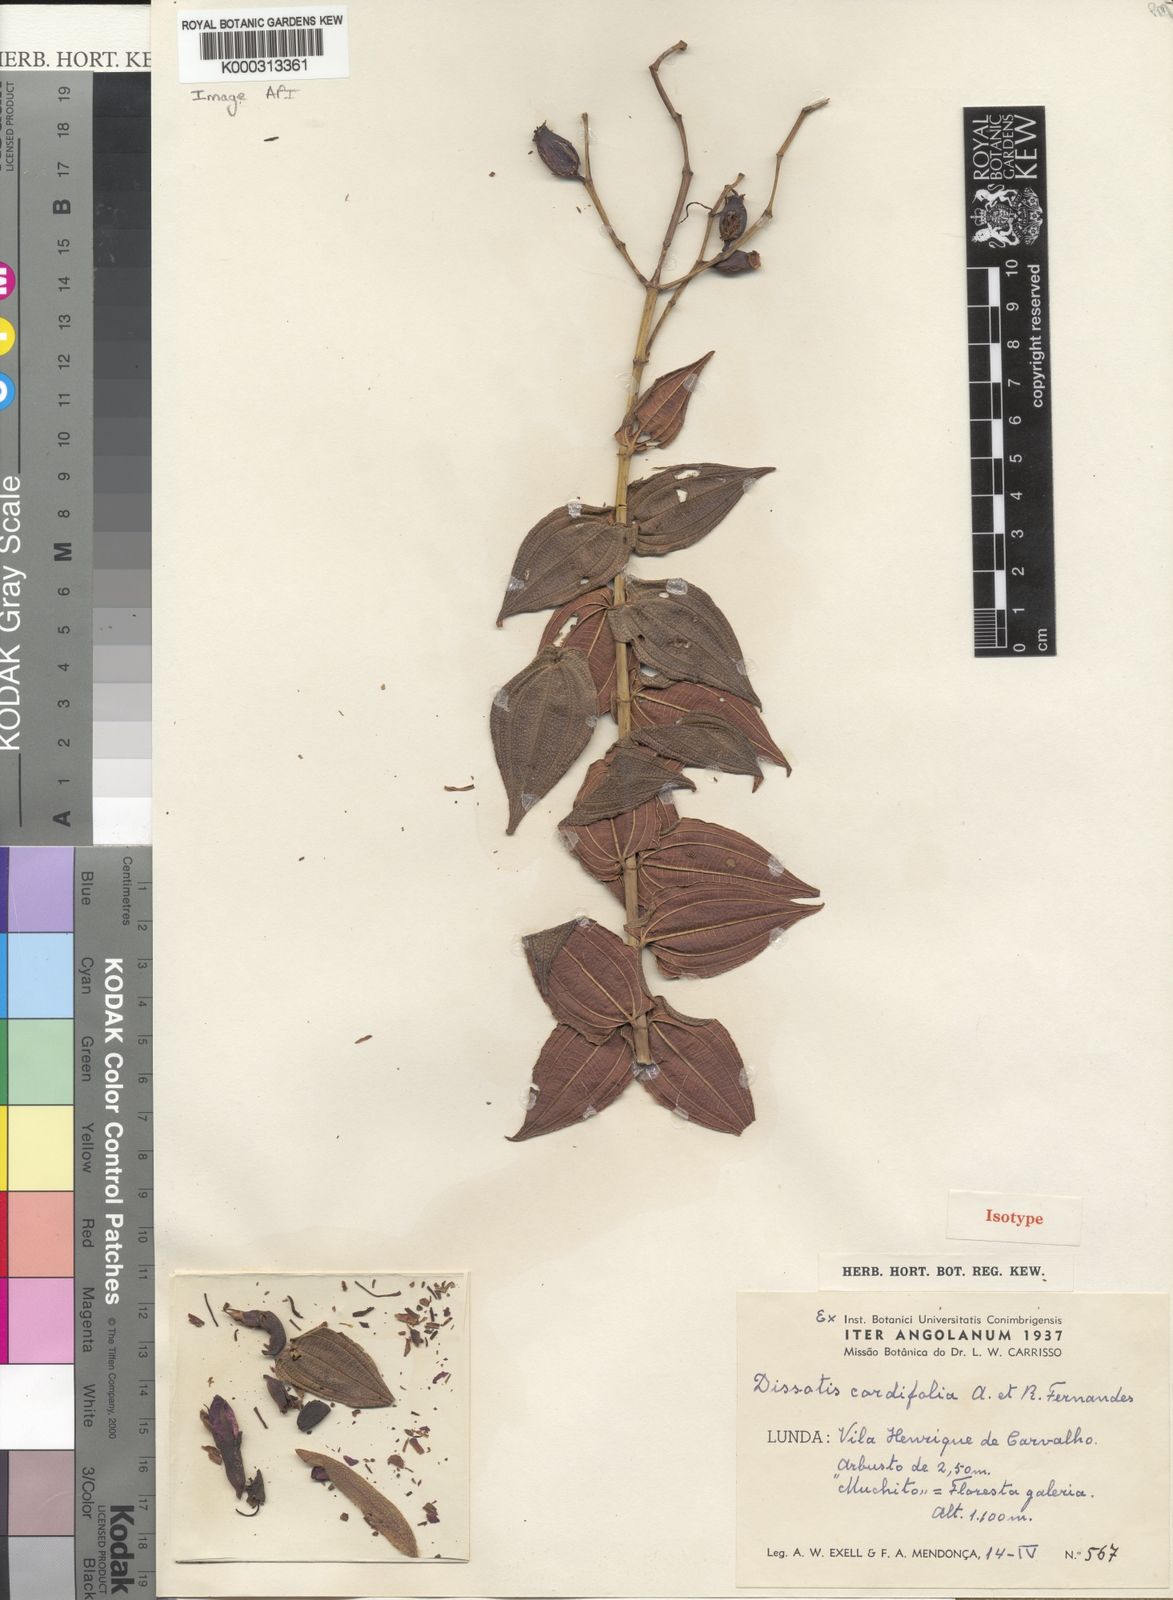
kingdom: Plantae
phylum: Tracheophyta
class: Magnoliopsida
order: Myrtales
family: Melastomataceae
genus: Dissotis
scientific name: Dissotis
